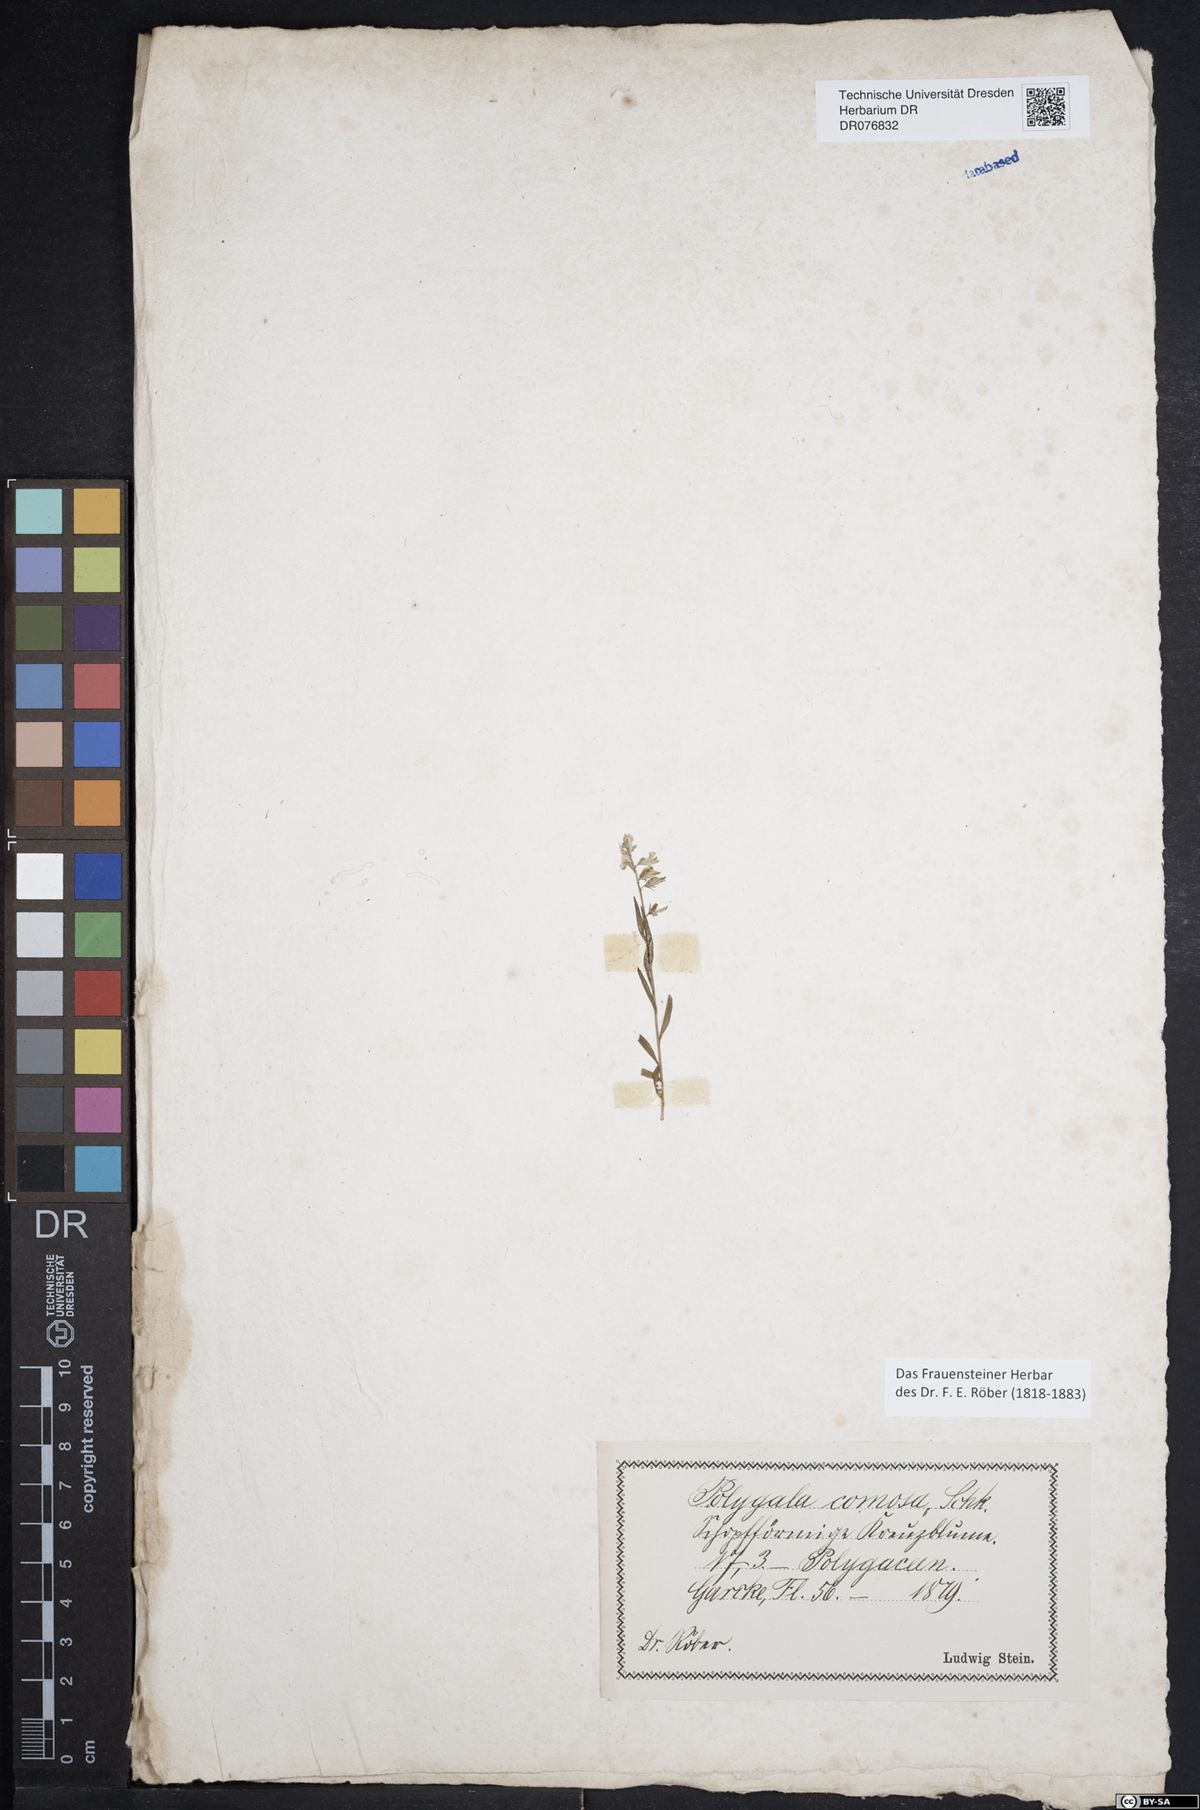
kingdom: Plantae
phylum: Tracheophyta
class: Magnoliopsida
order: Fabales
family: Polygalaceae
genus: Polygala
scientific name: Polygala comosa
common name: Tufted milkwort
